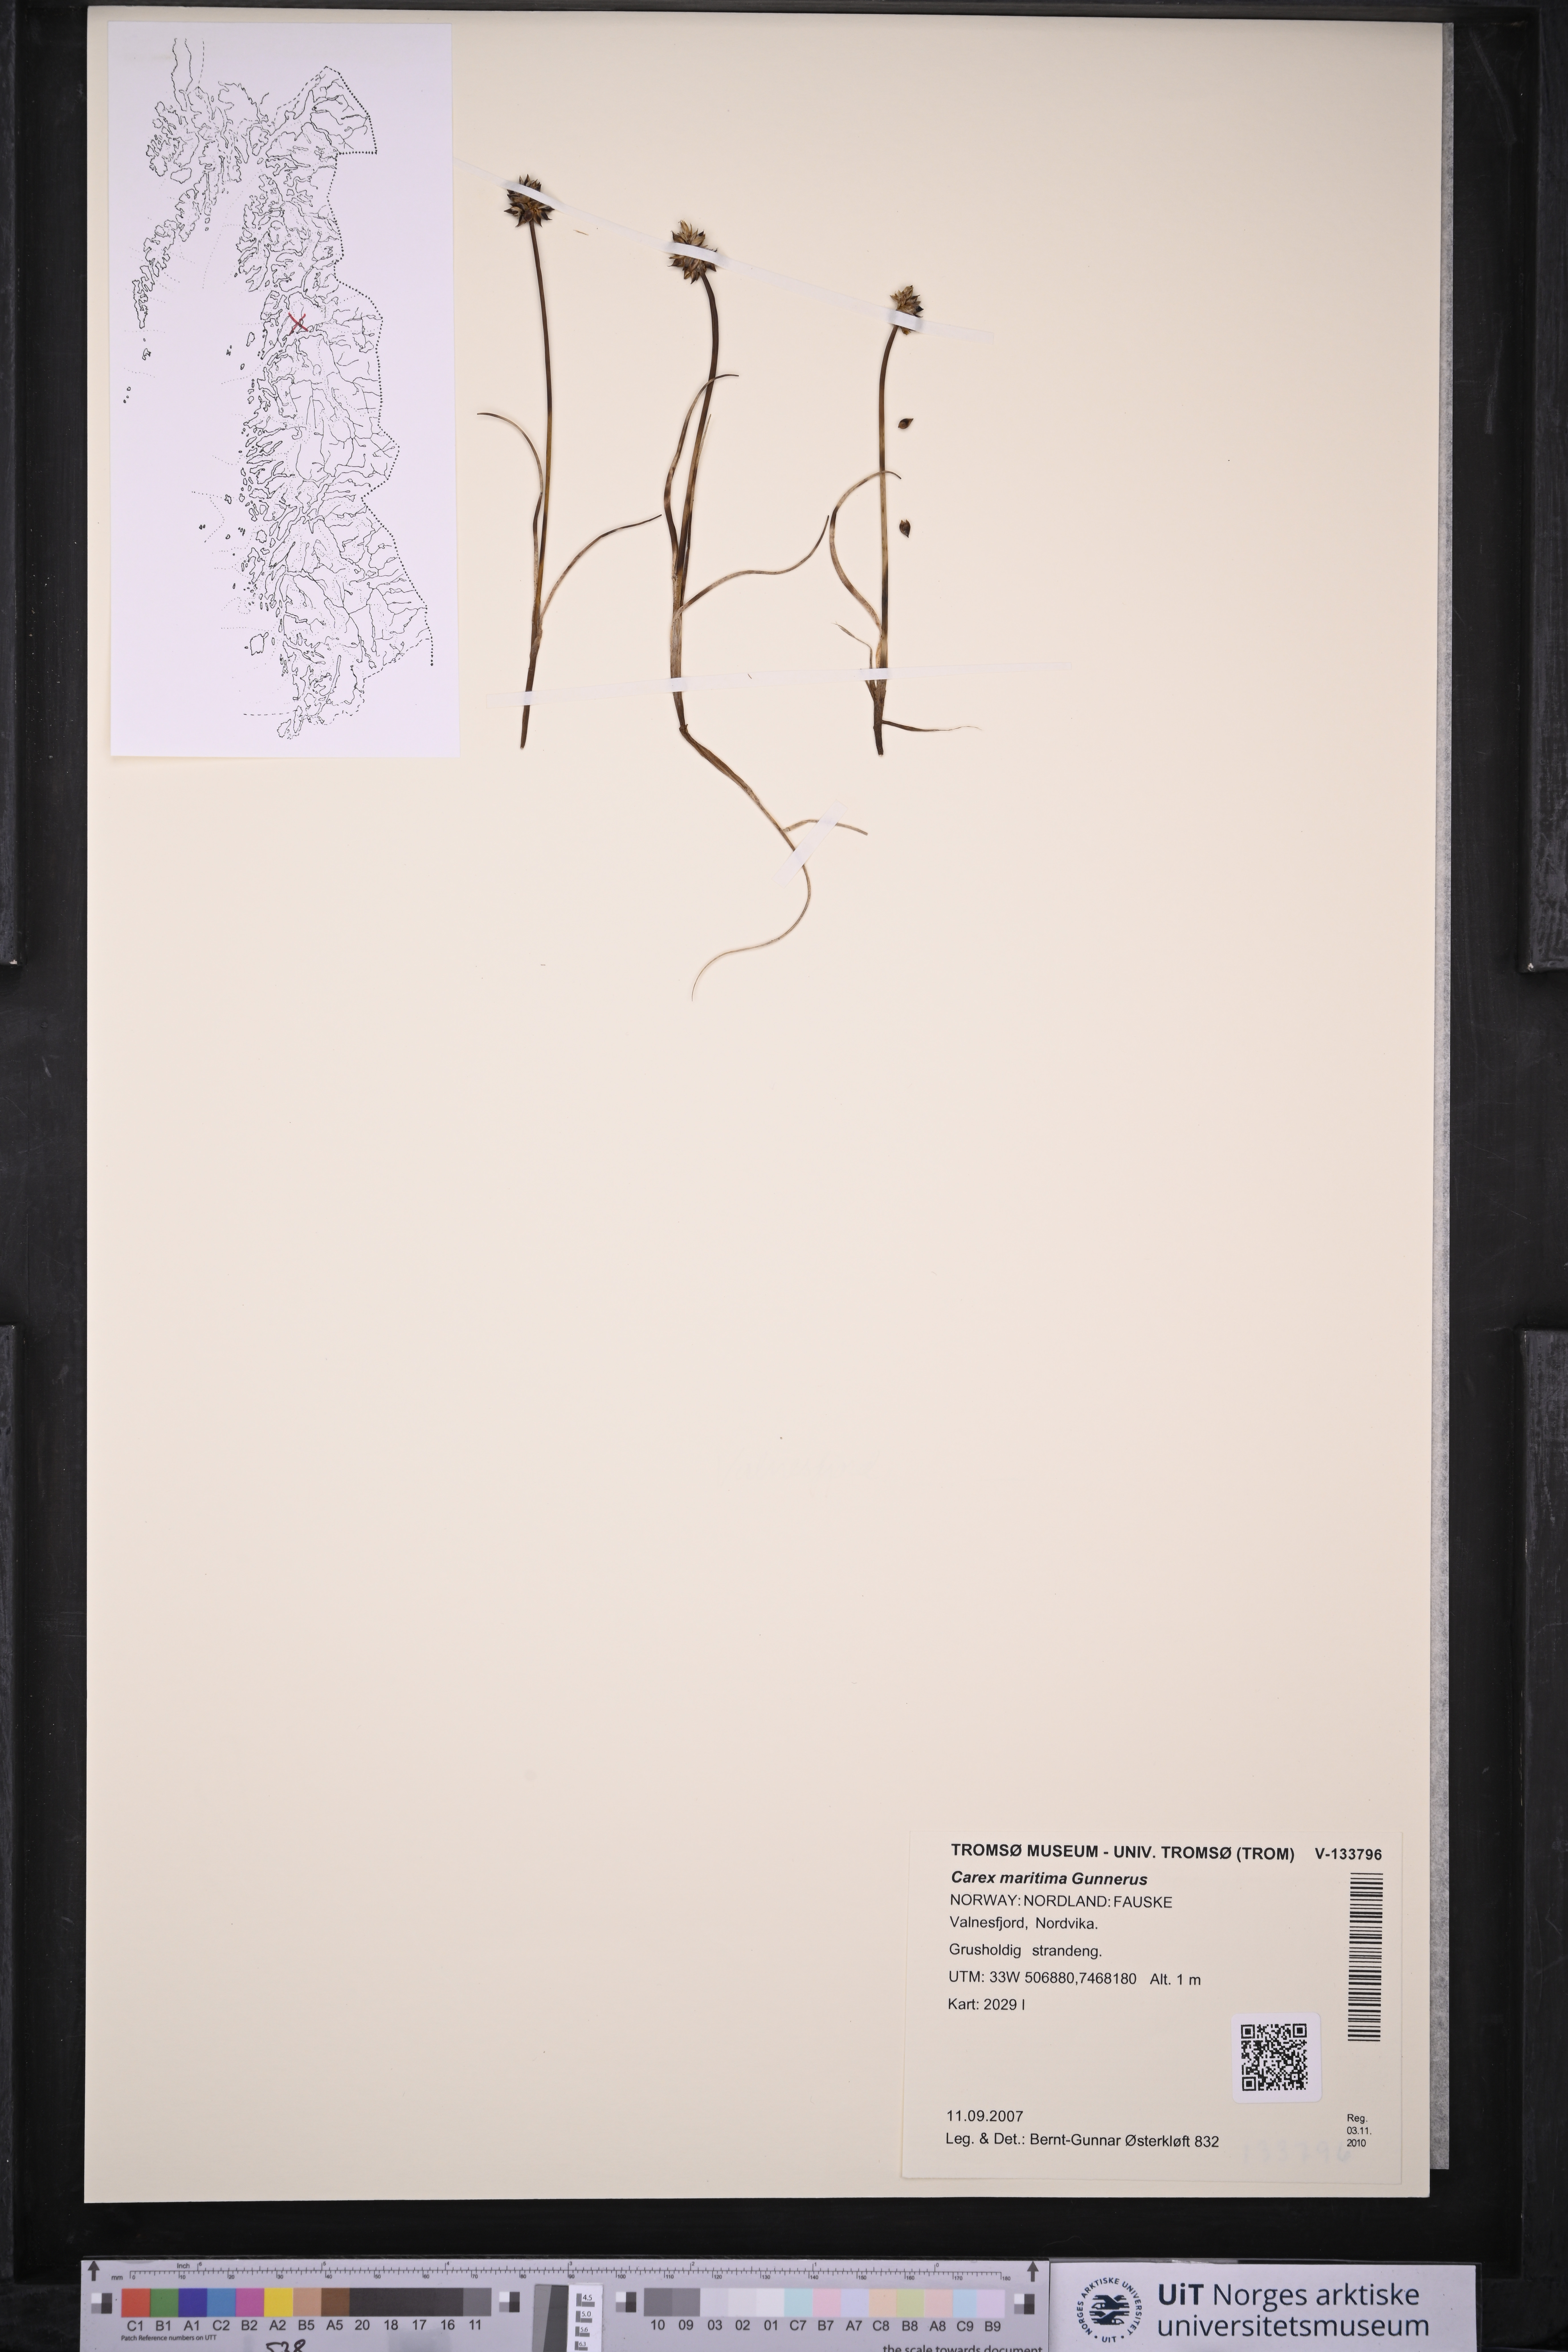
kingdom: Plantae
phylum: Tracheophyta
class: Liliopsida
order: Poales
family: Cyperaceae
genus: Carex
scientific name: Carex maritima
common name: Curved sedge
